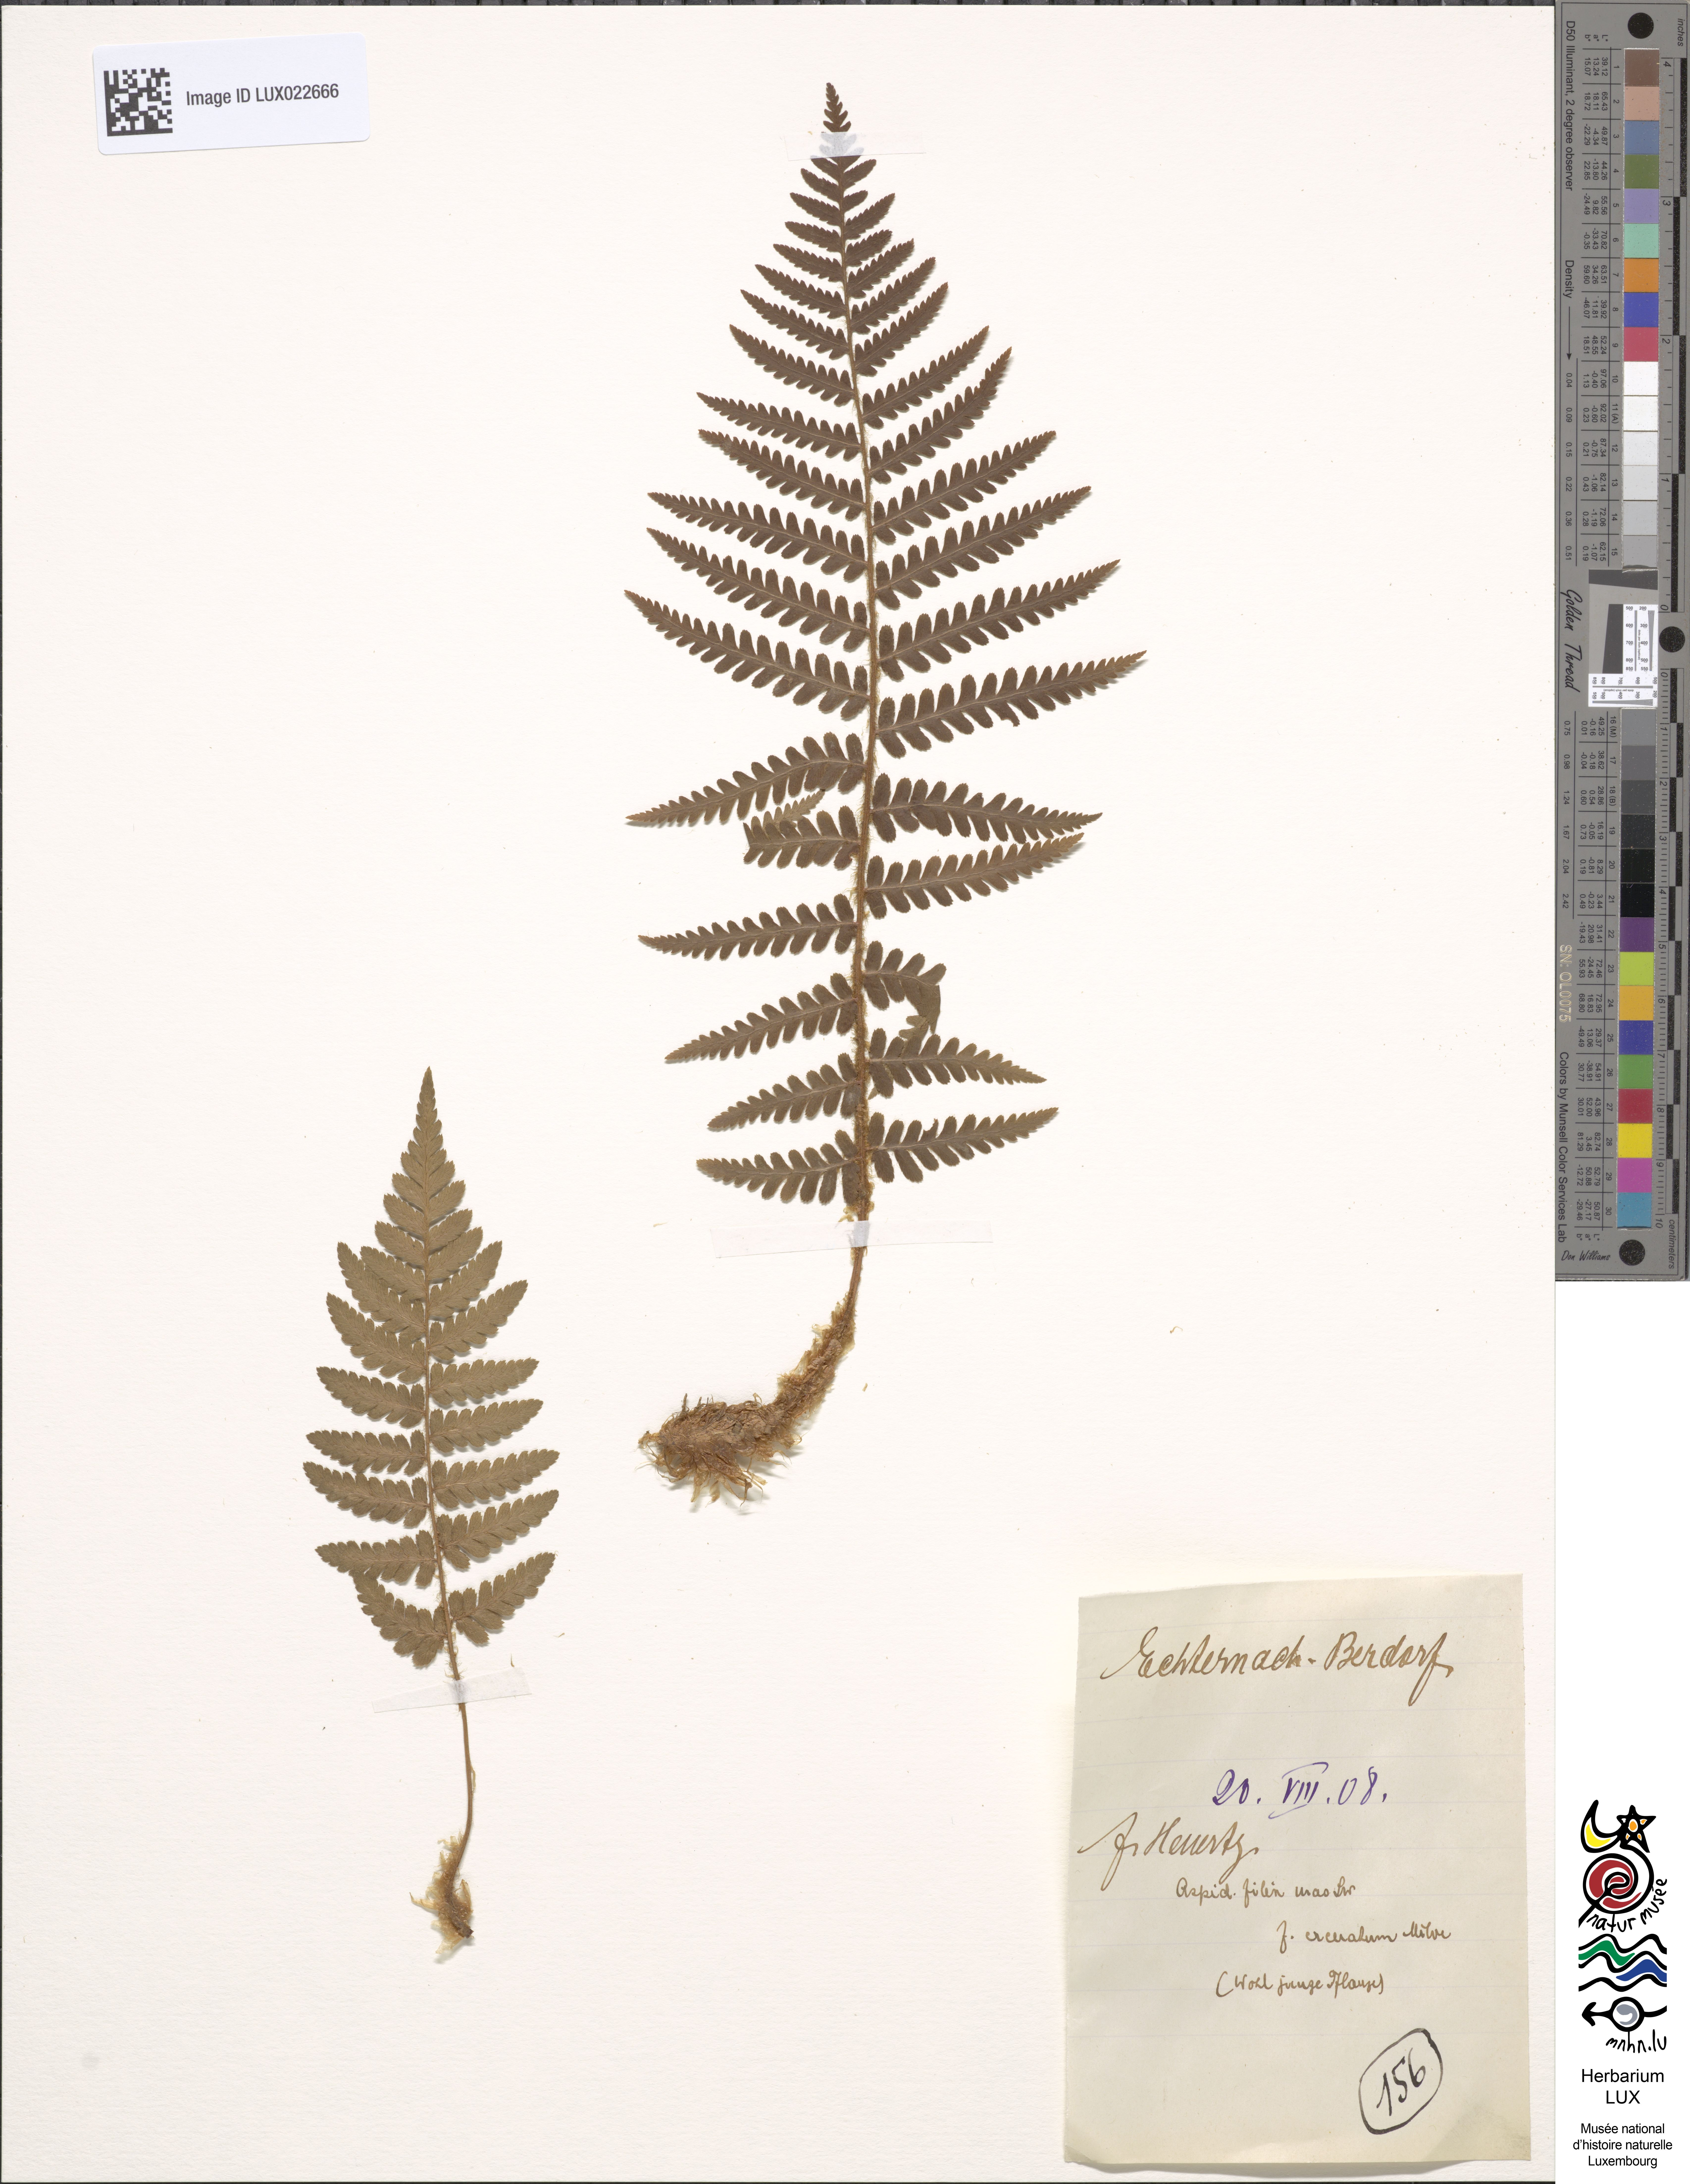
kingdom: Plantae
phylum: Tracheophyta
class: Polypodiopsida
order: Polypodiales
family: Dryopteridaceae
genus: Dryopteris
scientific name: Dryopteris filix-mas
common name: Male fern
